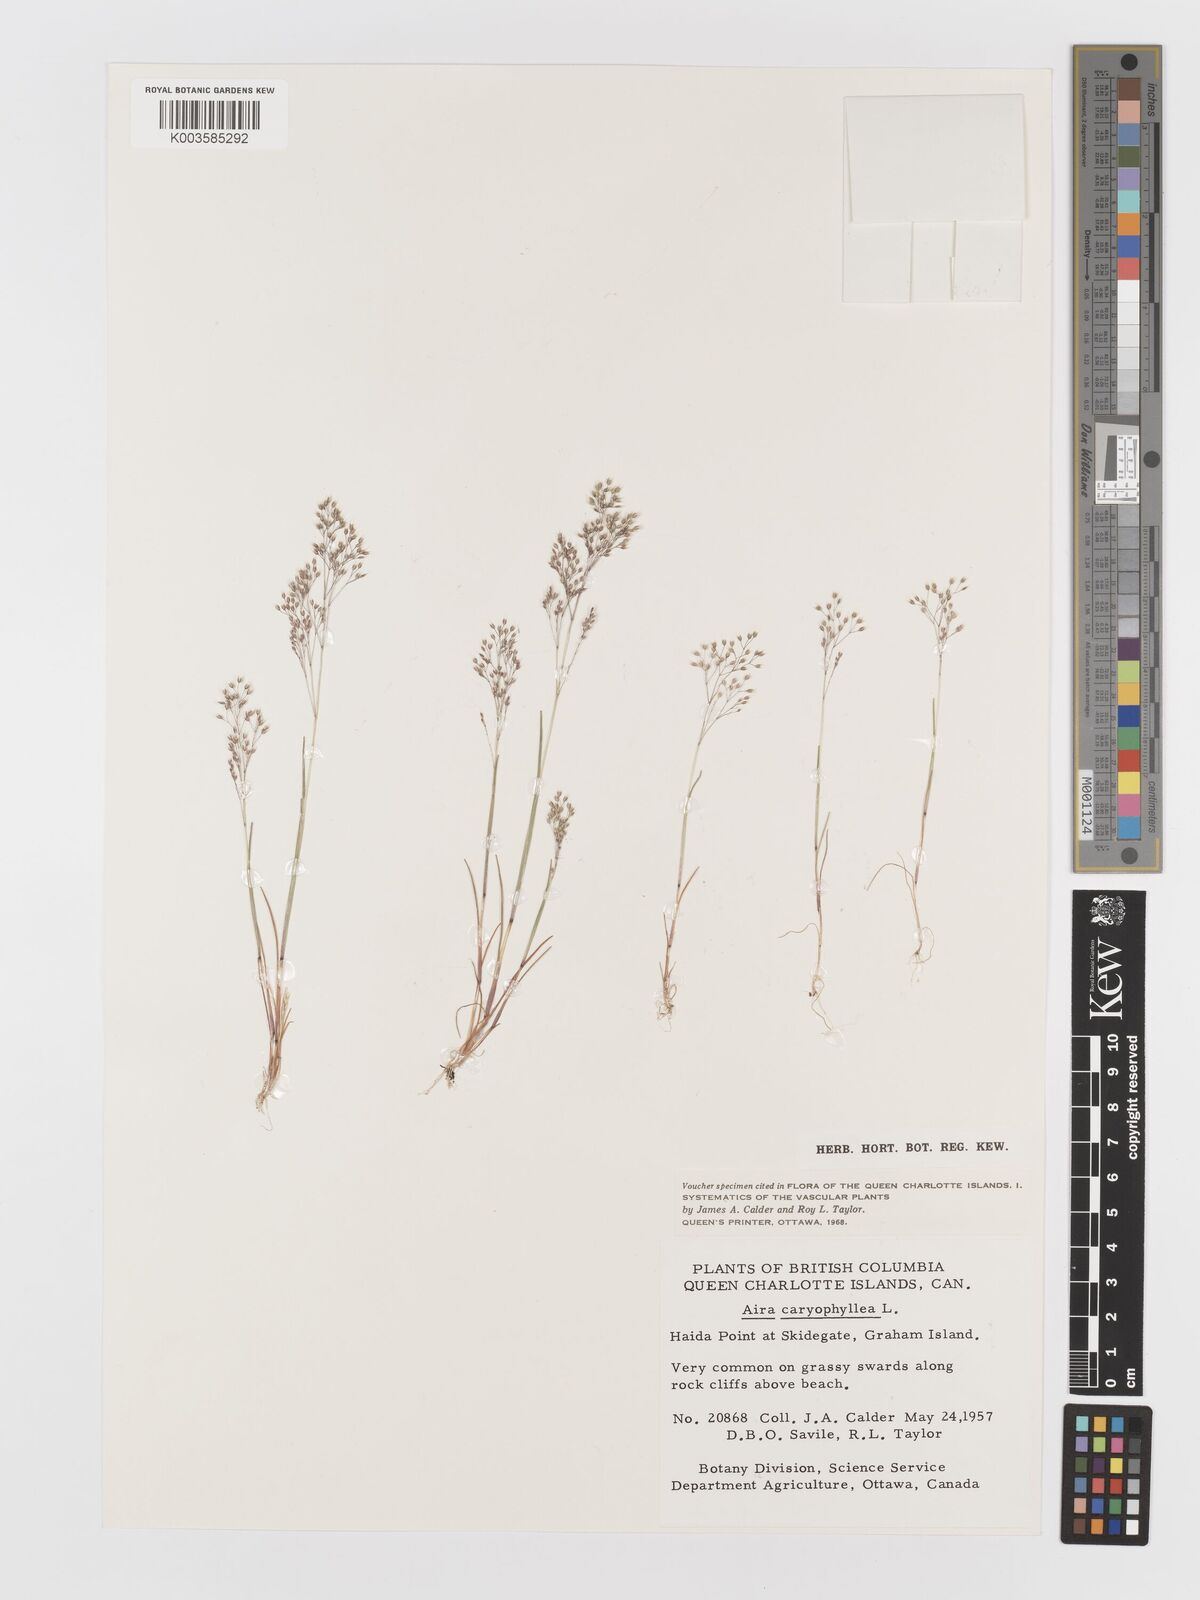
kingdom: Plantae
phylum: Tracheophyta
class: Liliopsida
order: Poales
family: Poaceae
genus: Aira
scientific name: Aira caryophyllea
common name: Silver hairgrass
